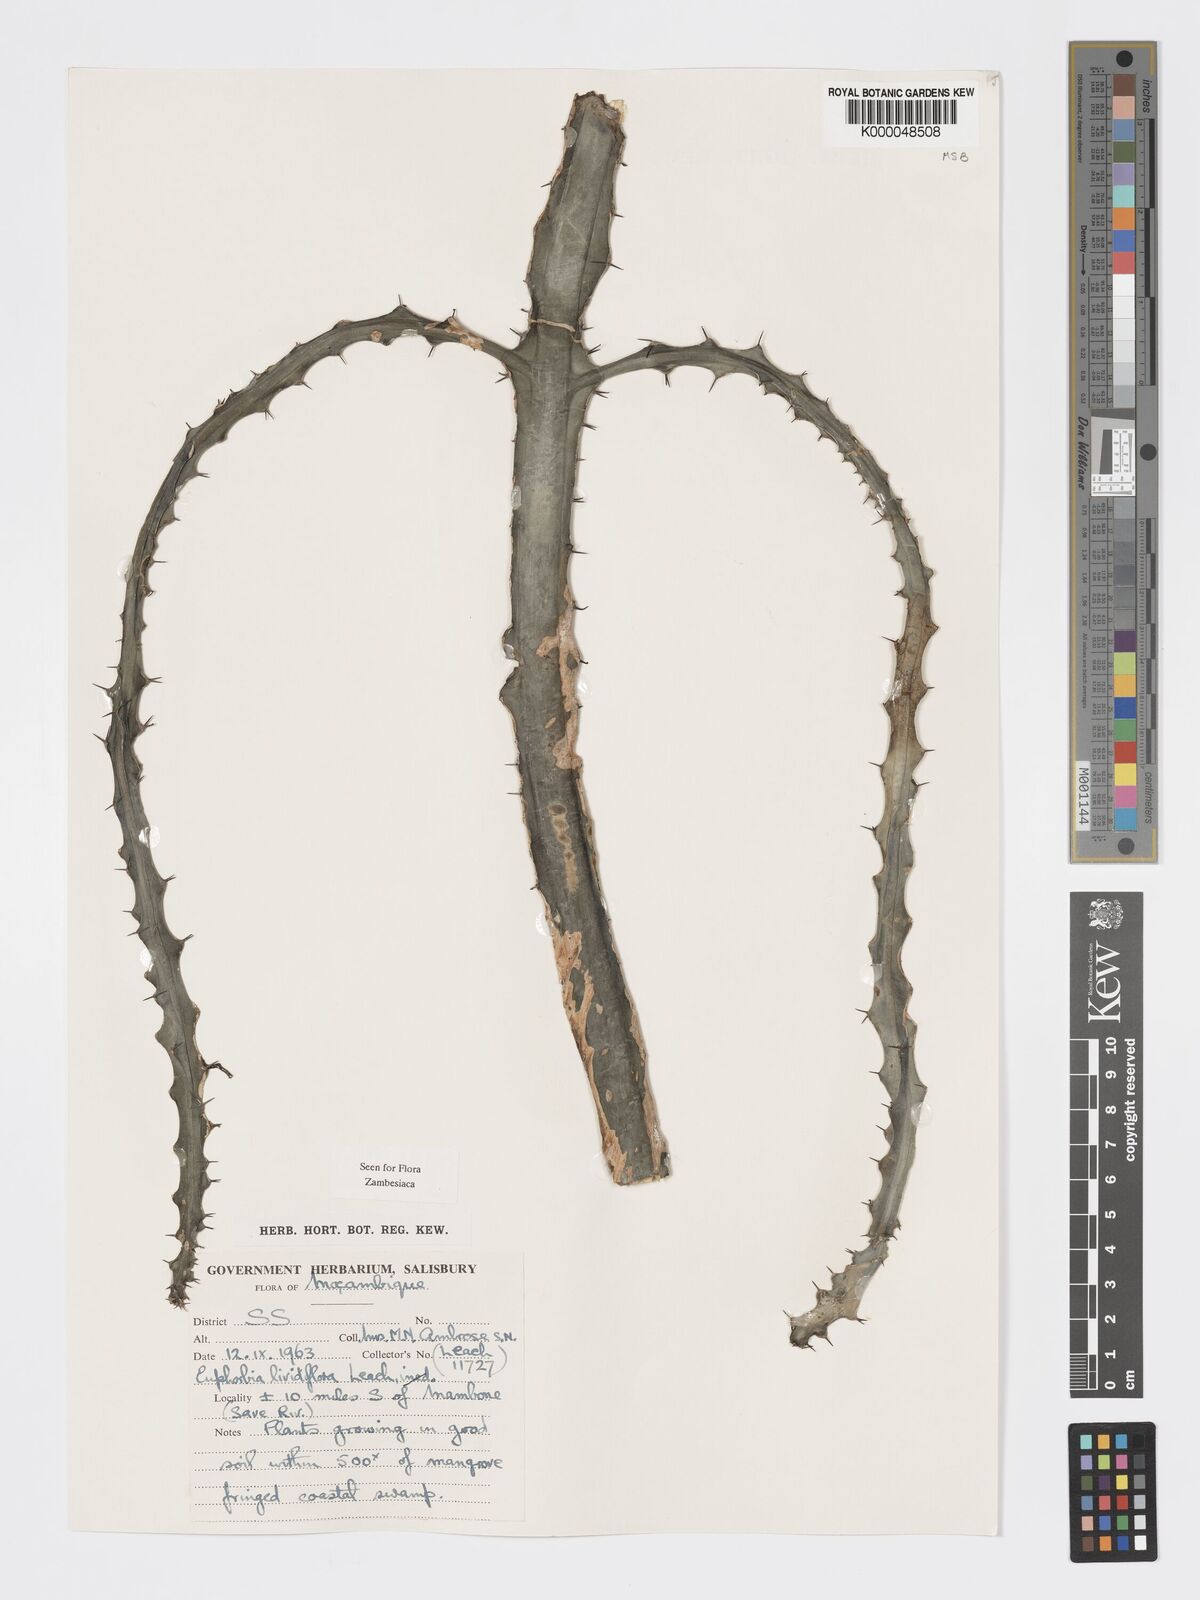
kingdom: Plantae
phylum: Tracheophyta
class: Magnoliopsida
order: Malpighiales
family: Euphorbiaceae
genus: Euphorbia
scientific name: Euphorbia lividiflora
